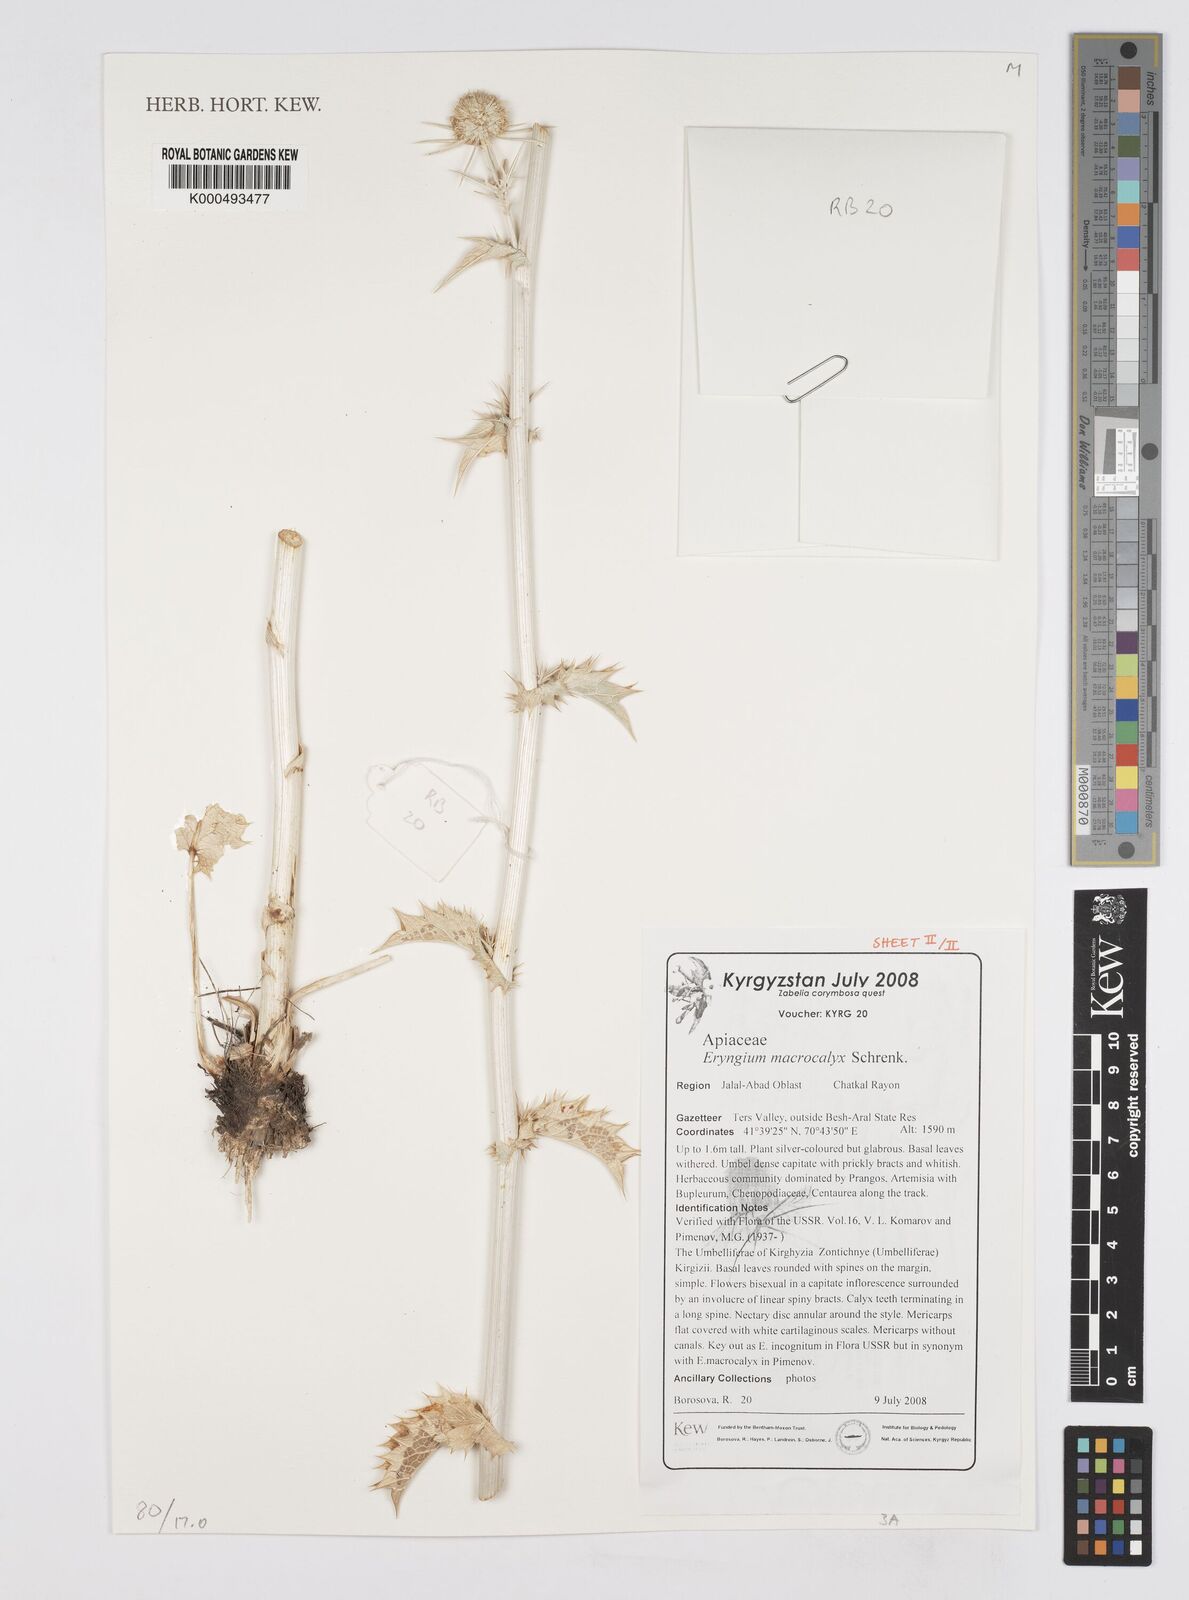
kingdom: Plantae
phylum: Tracheophyta
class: Magnoliopsida
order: Apiales
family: Apiaceae
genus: Eryngium
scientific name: Eryngium macrocalyx
